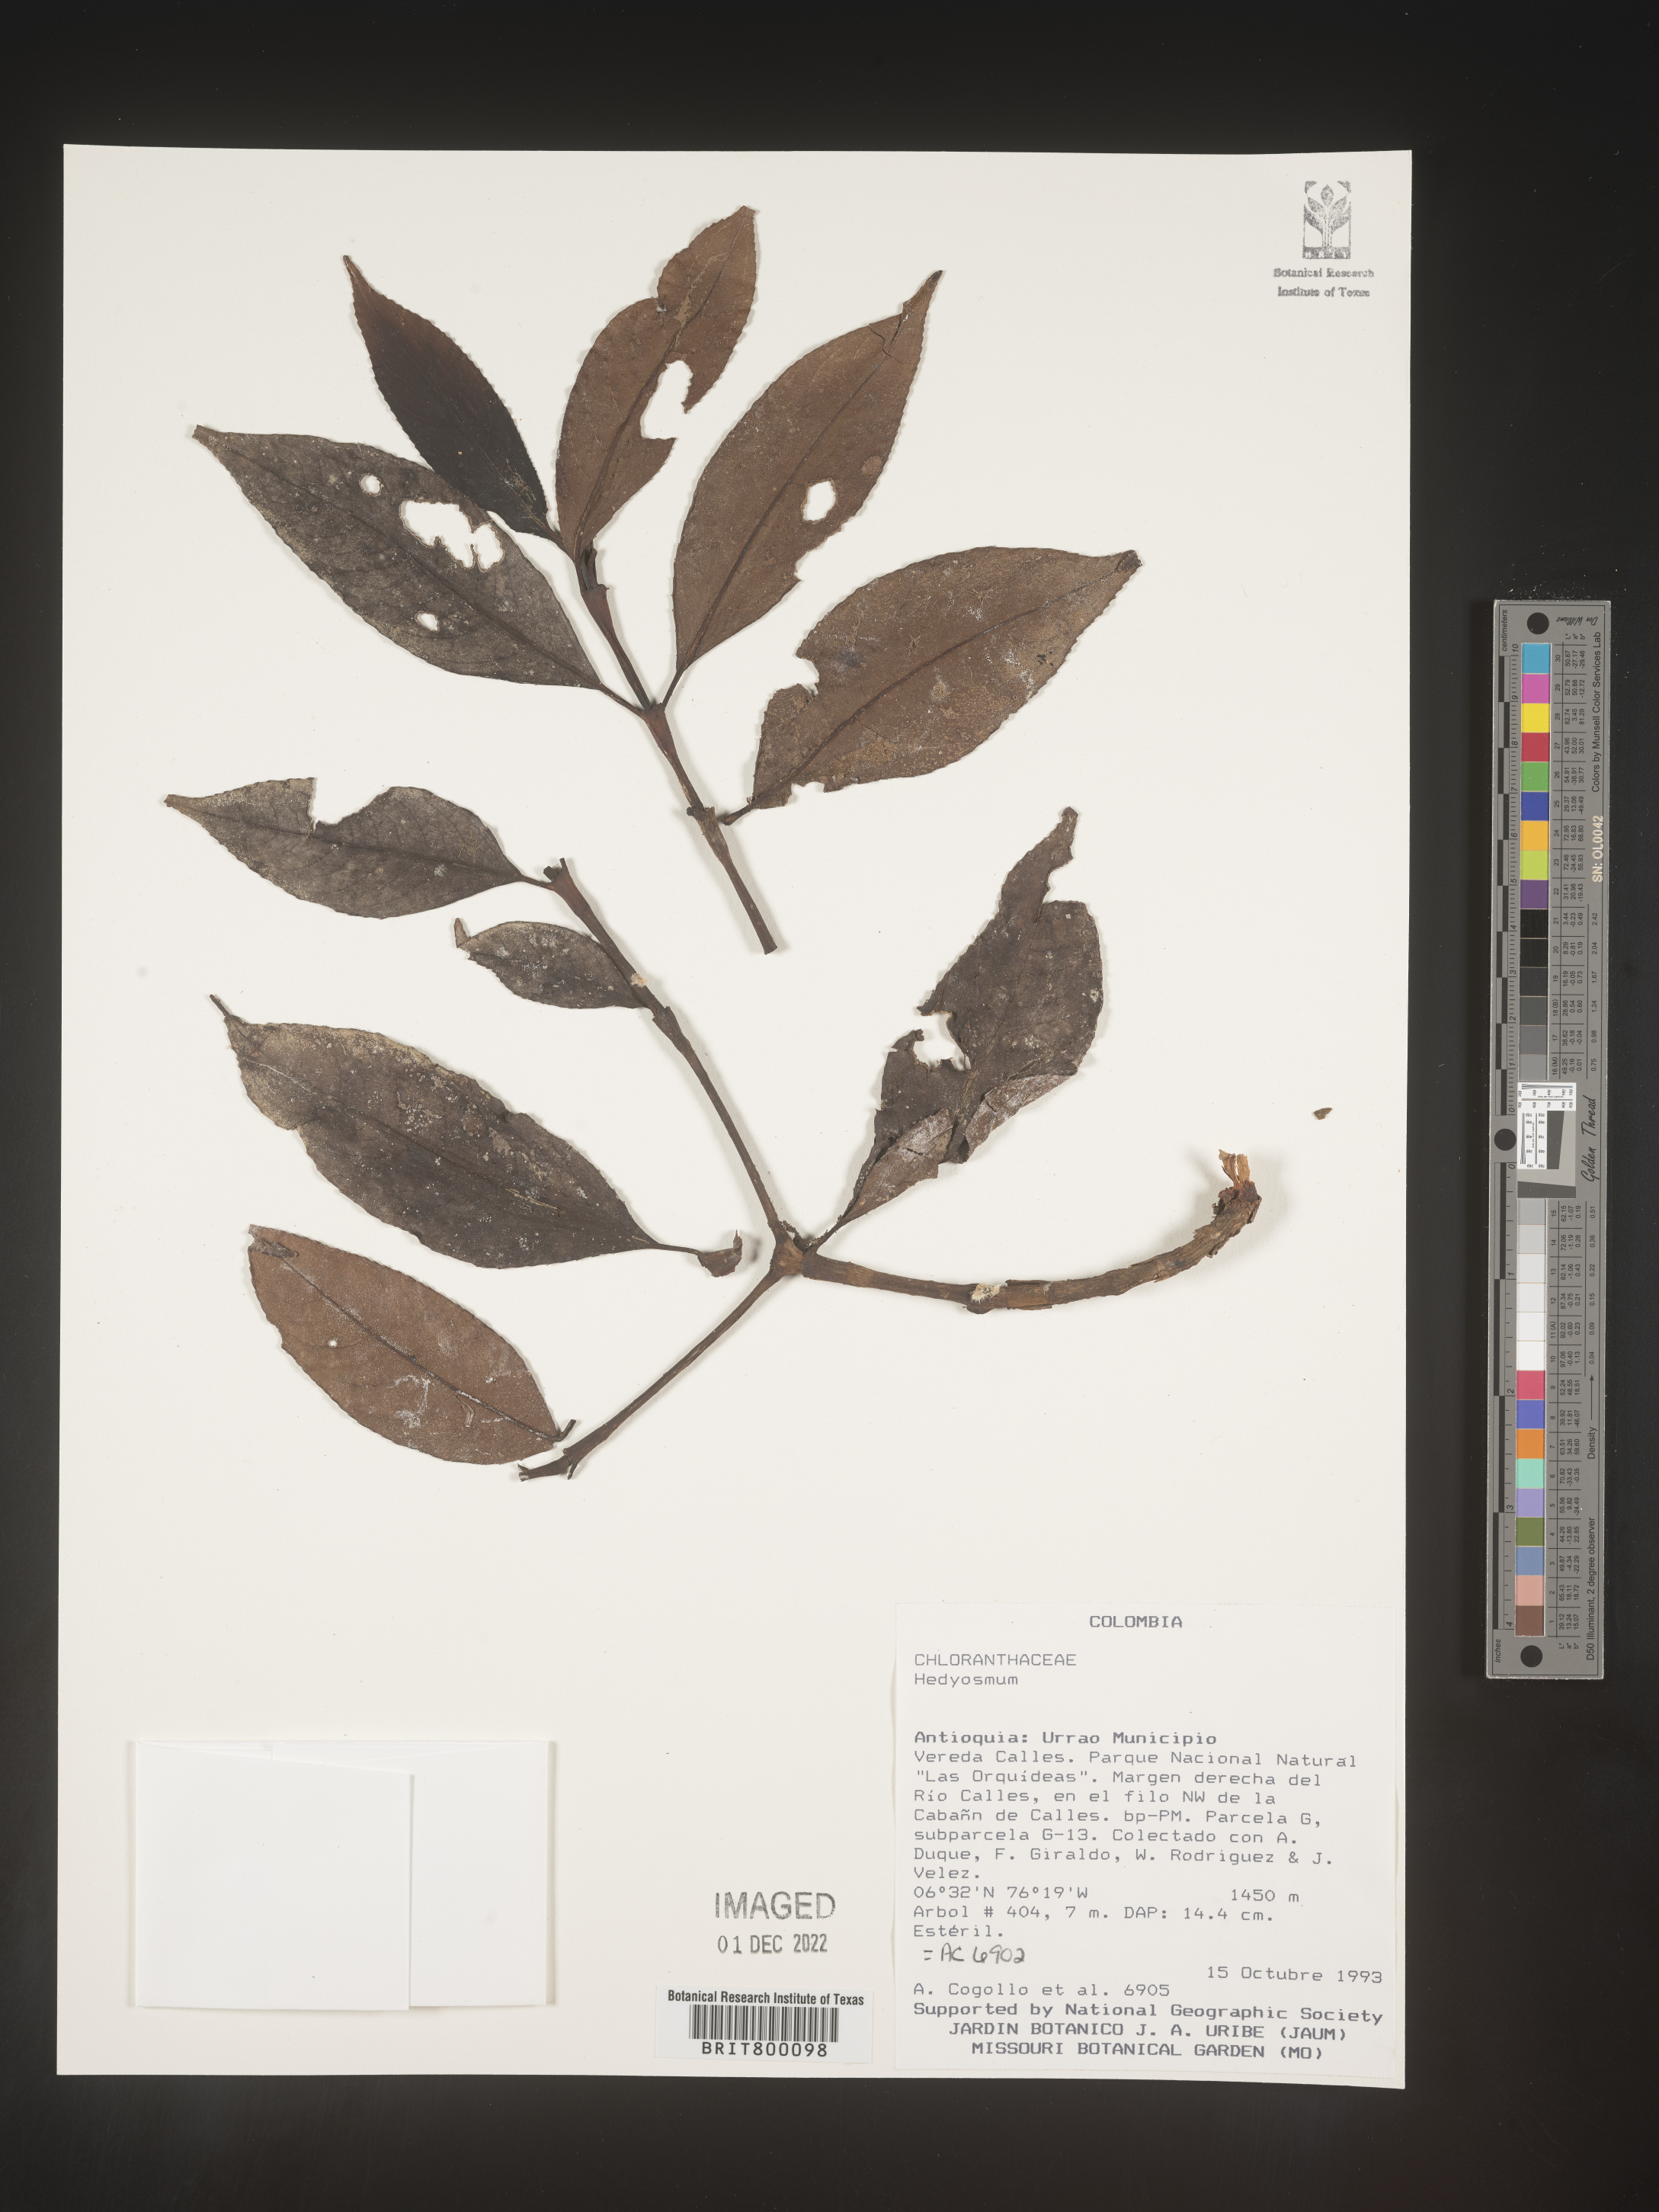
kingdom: Plantae
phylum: Tracheophyta
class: Magnoliopsida
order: Chloranthales
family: Chloranthaceae
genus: Hedyosmum
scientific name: Hedyosmum
